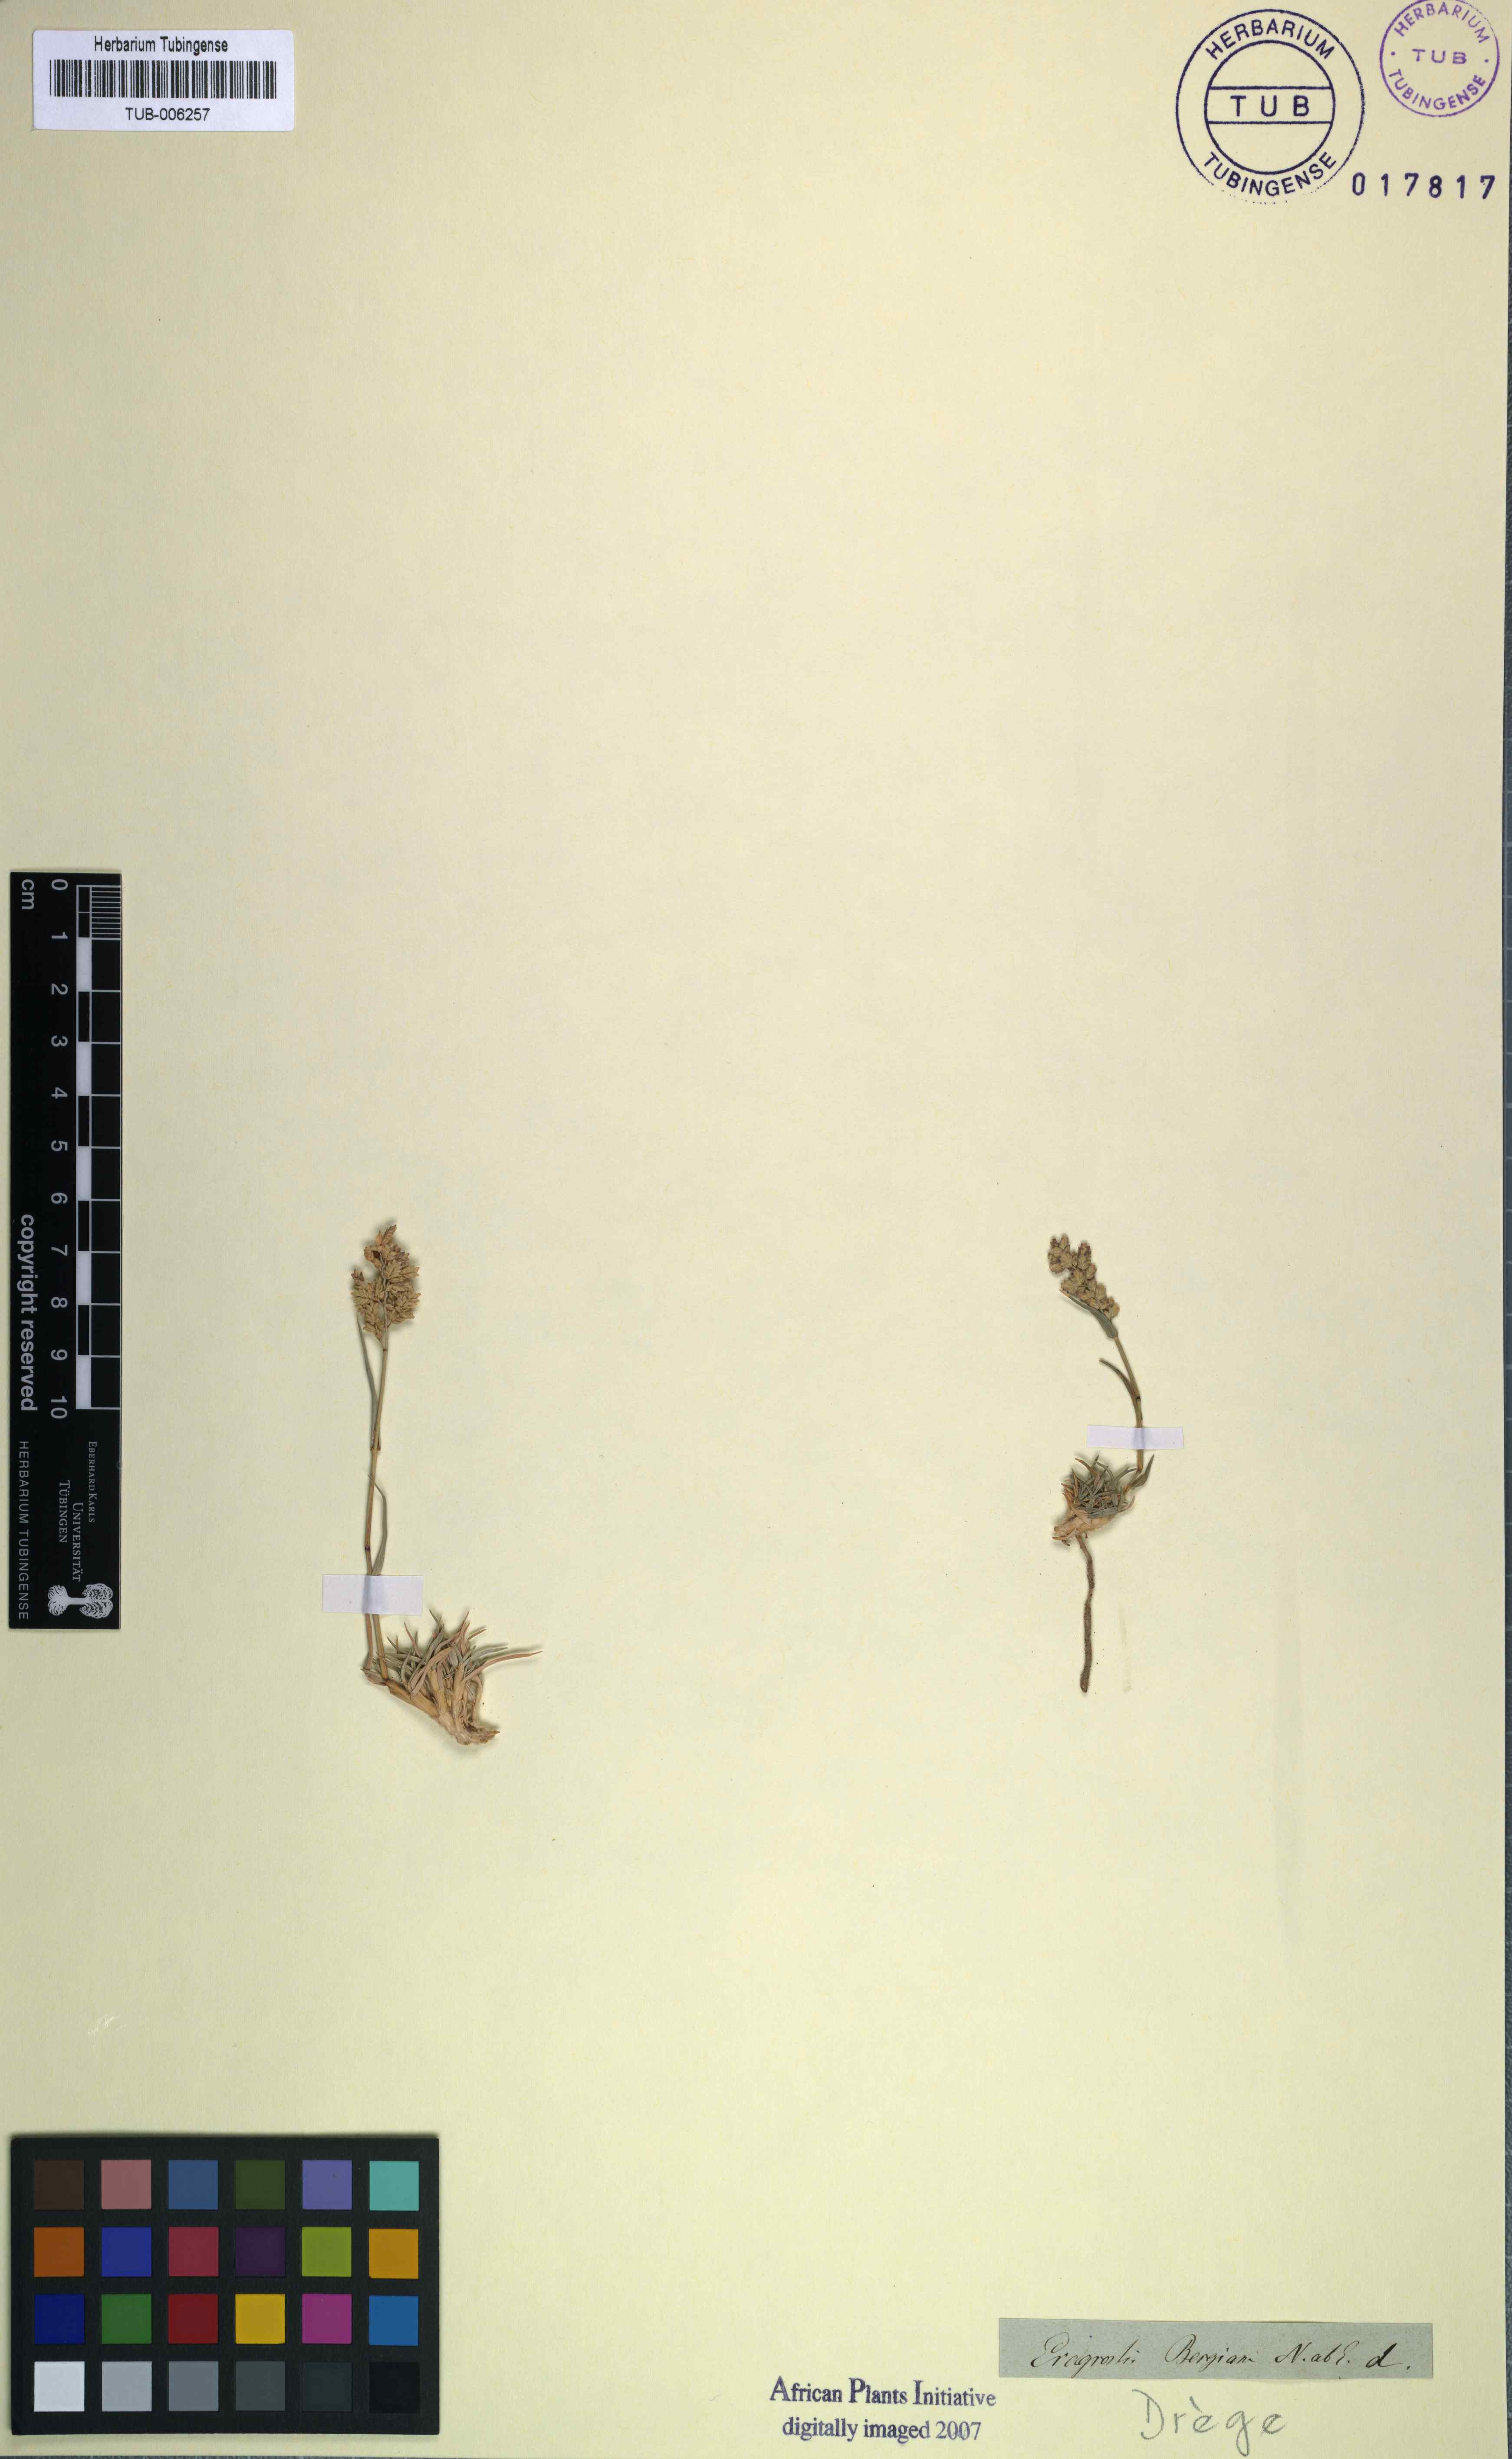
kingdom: Plantae
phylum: Tracheophyta
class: Liliopsida
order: Poales
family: Poaceae
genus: Eragrostis
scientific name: Eragrostis bergiana
